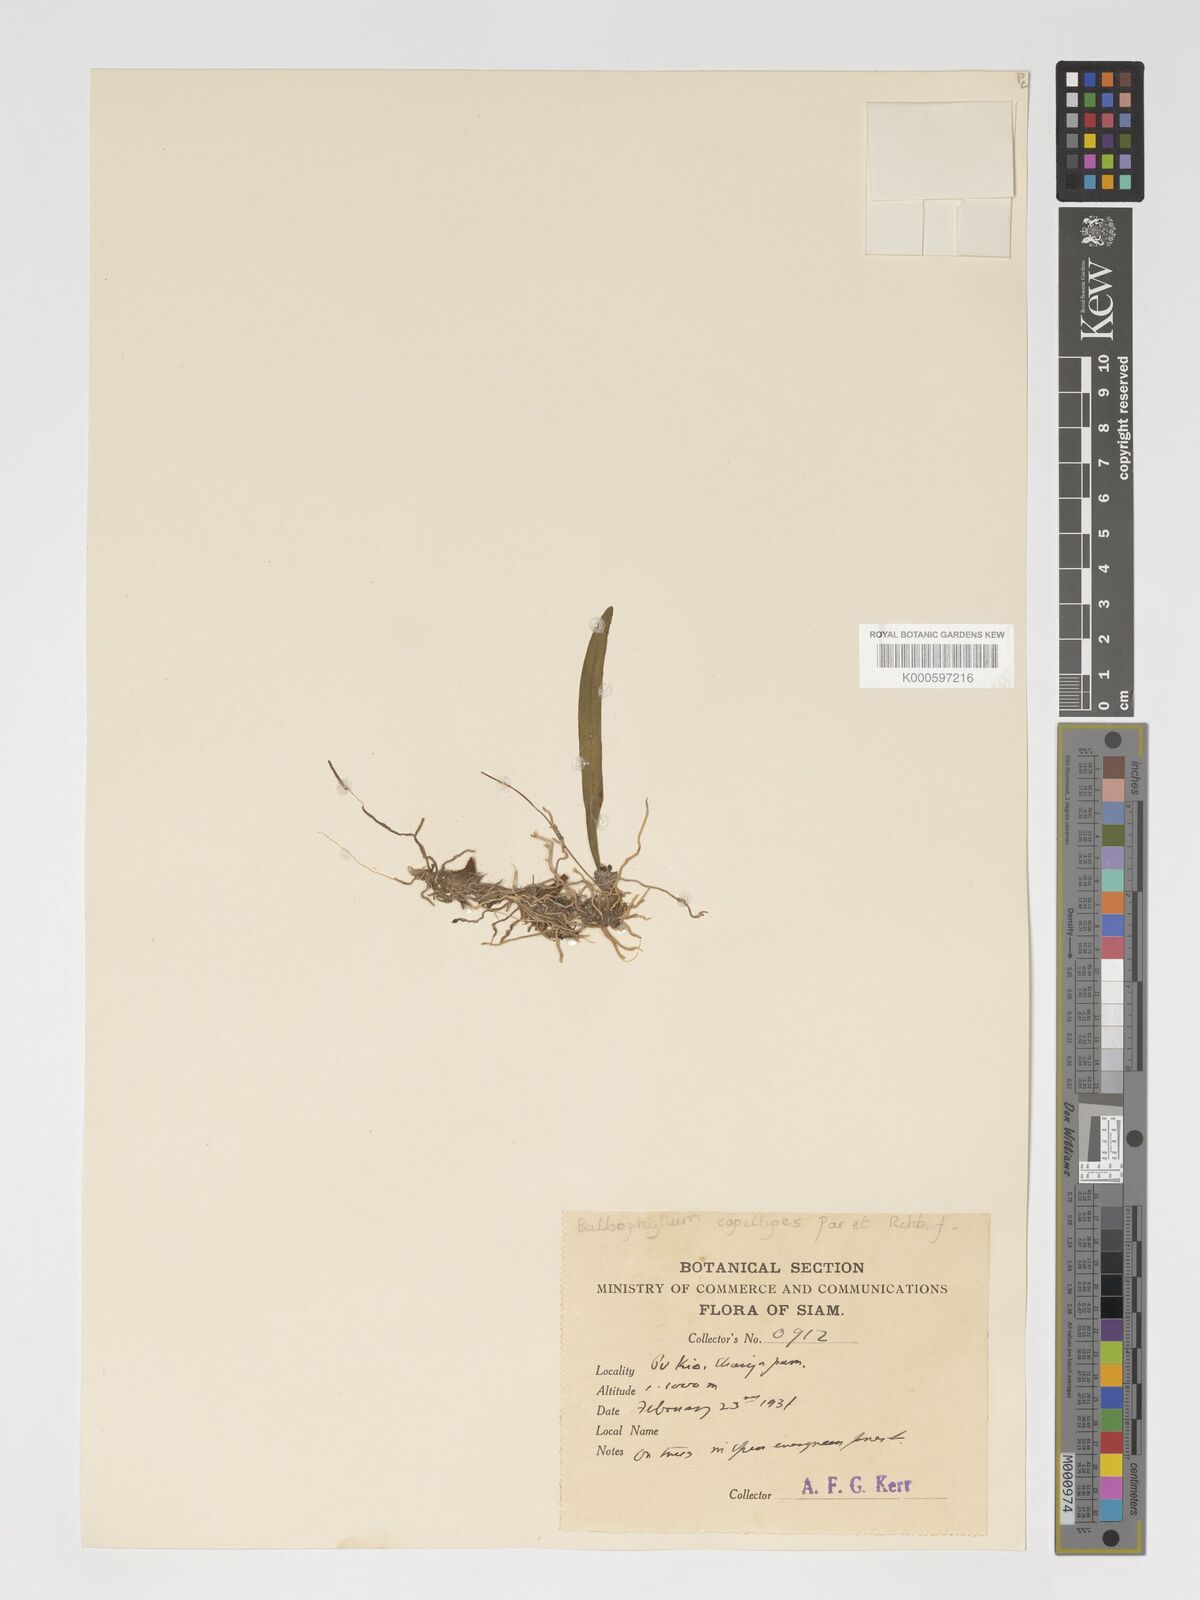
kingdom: Plantae
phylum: Tracheophyta
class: Liliopsida
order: Asparagales
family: Orchidaceae
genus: Bulbophyllum
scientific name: Bulbophyllum capillipes
